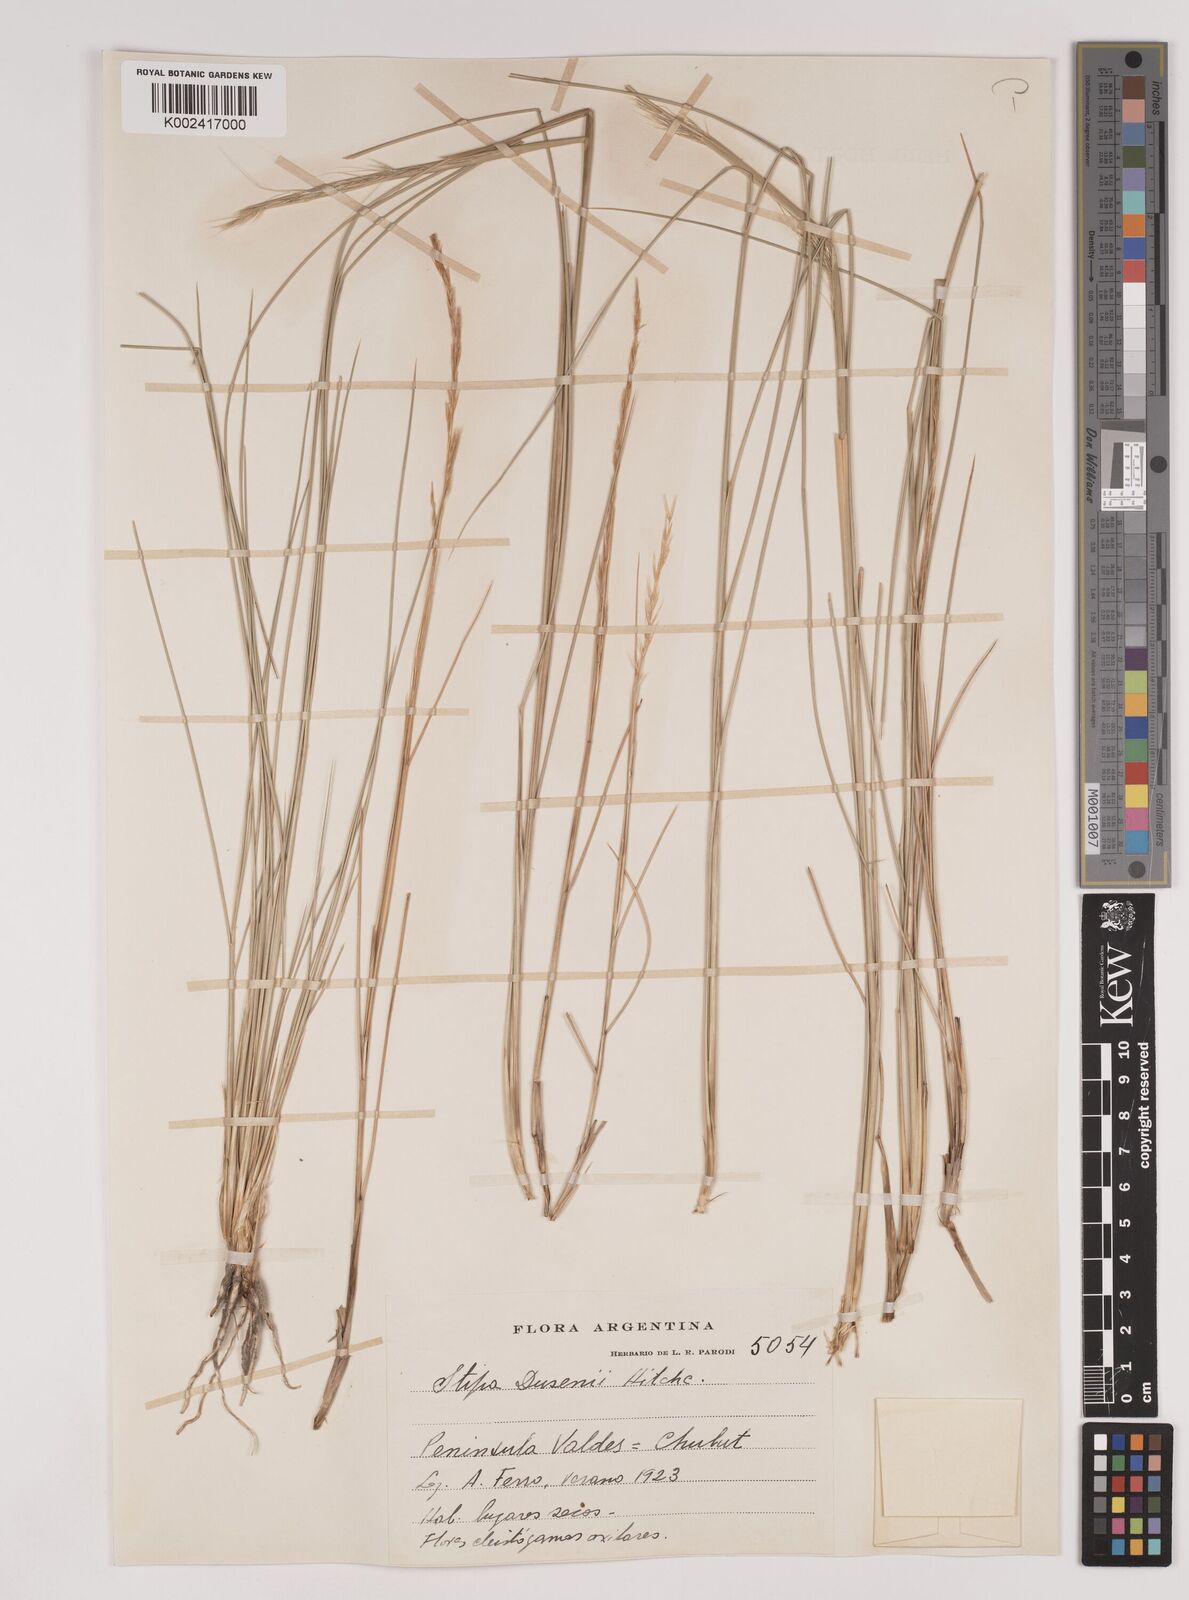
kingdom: Plantae
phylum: Tracheophyta
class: Liliopsida
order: Poales
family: Poaceae
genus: Amelichloa
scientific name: Amelichloa ambigua
